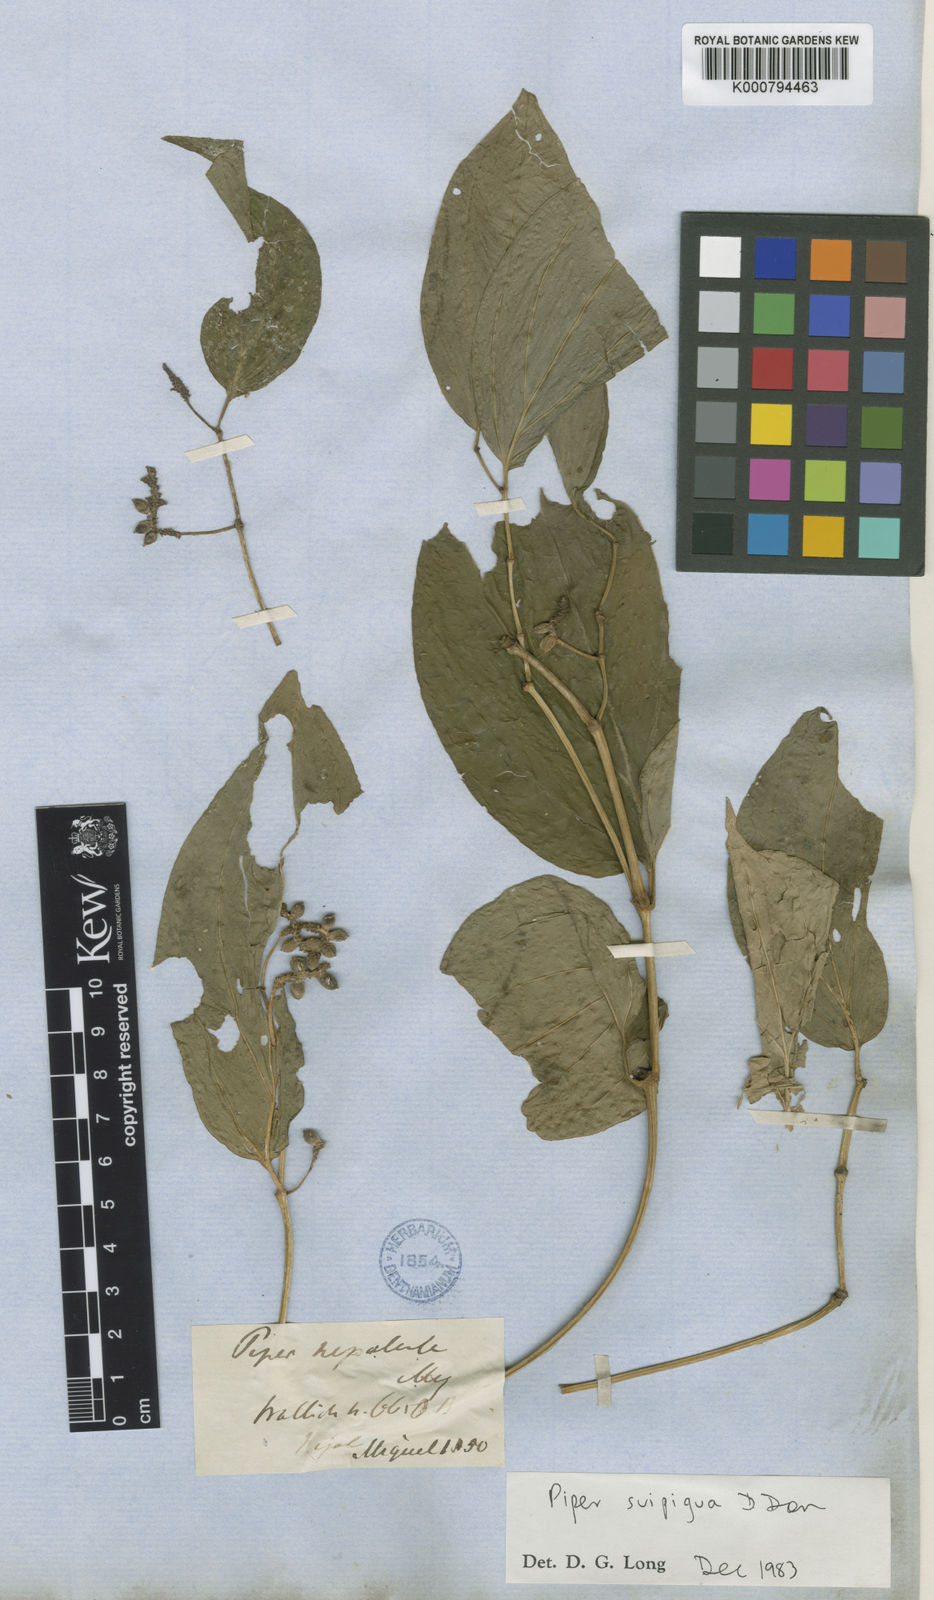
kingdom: Plantae
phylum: Tracheophyta
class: Magnoliopsida
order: Piperales
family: Piperaceae
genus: Piper
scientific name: Piper suipigua
